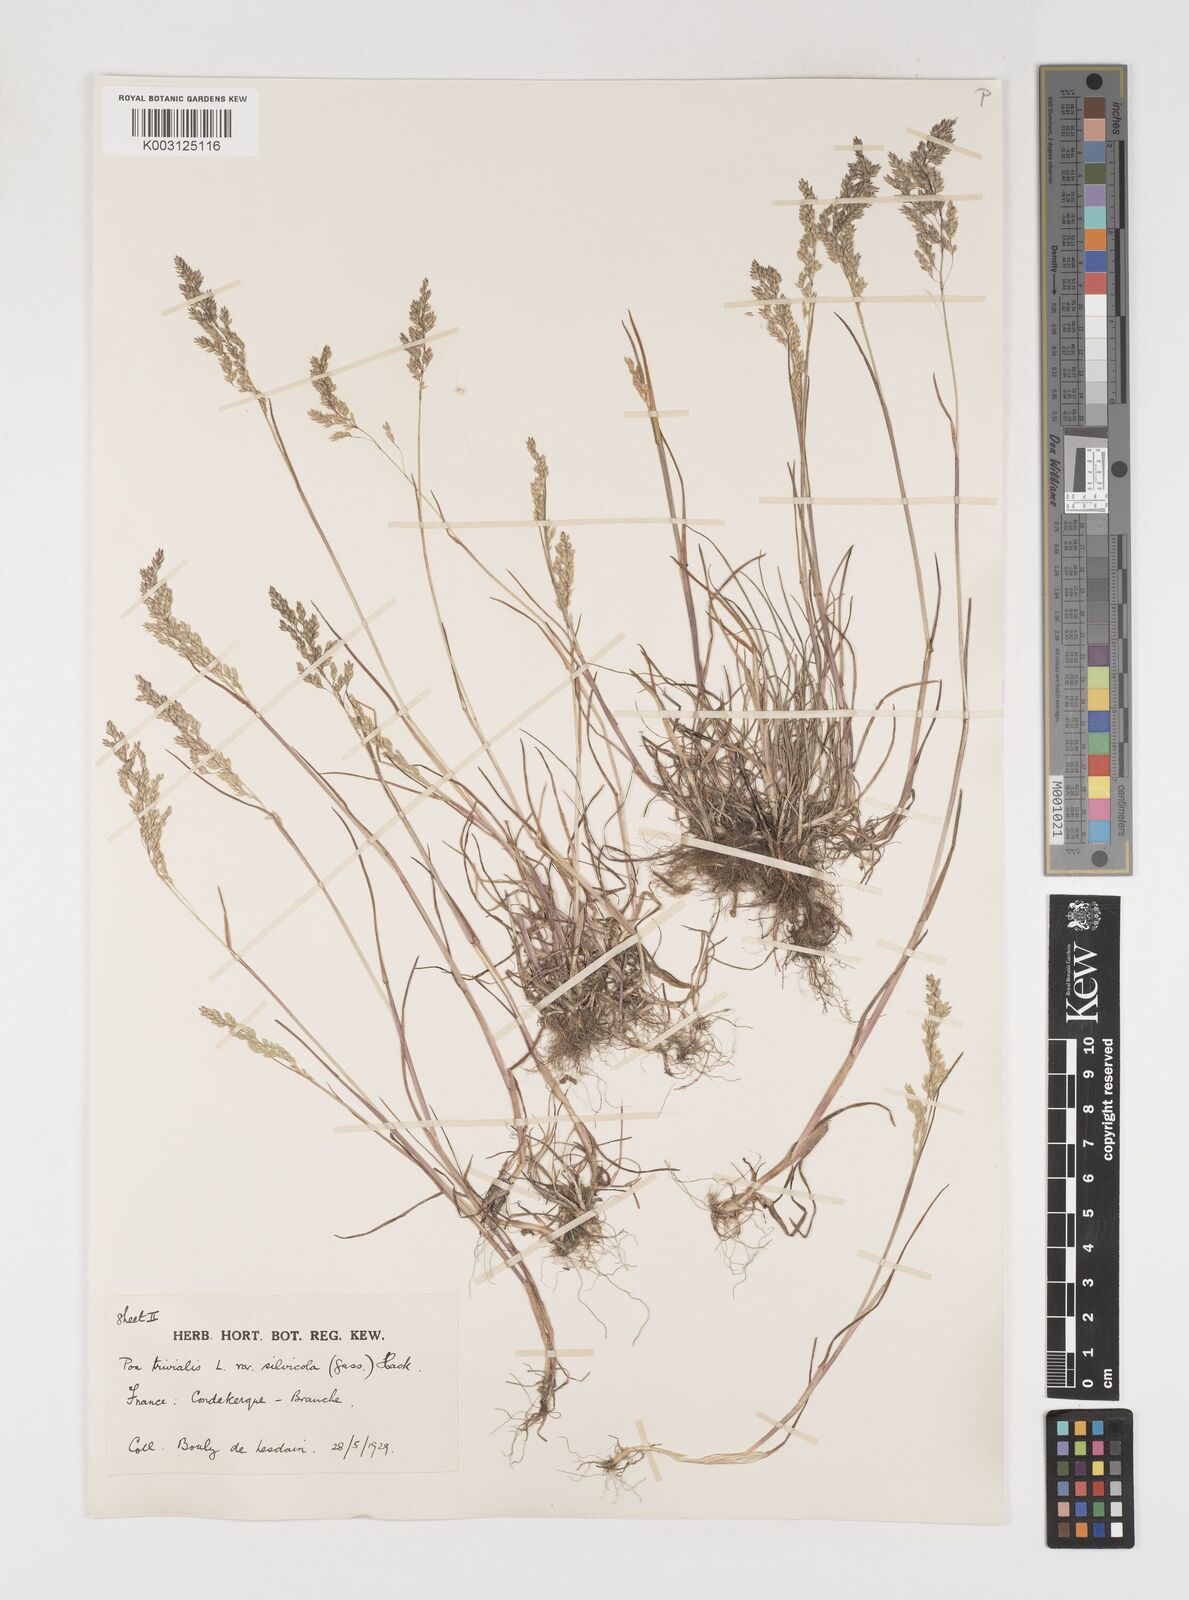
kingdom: Plantae
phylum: Tracheophyta
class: Liliopsida
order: Poales
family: Poaceae
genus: Poa
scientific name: Poa trivialis
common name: Rough bluegrass
